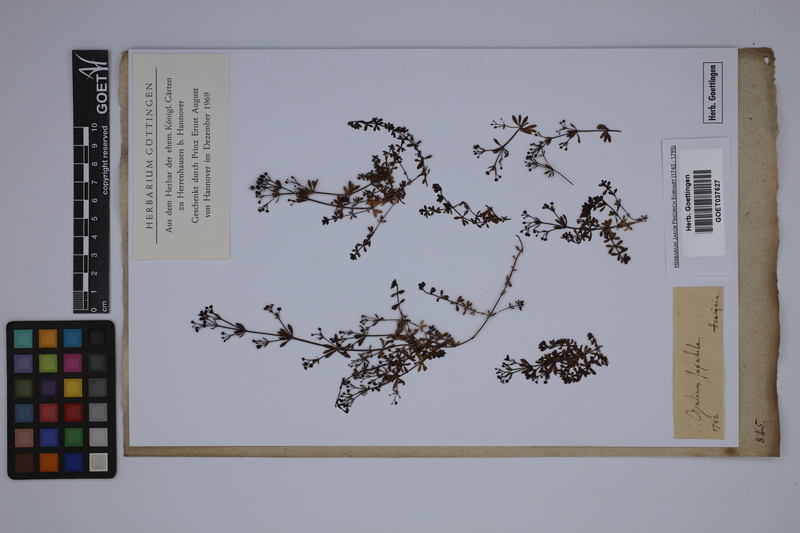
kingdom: Plantae
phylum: Tracheophyta
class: Magnoliopsida
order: Gentianales
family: Rubiaceae
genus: Galium
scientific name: Galium saxatile
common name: Heath bedstraw
